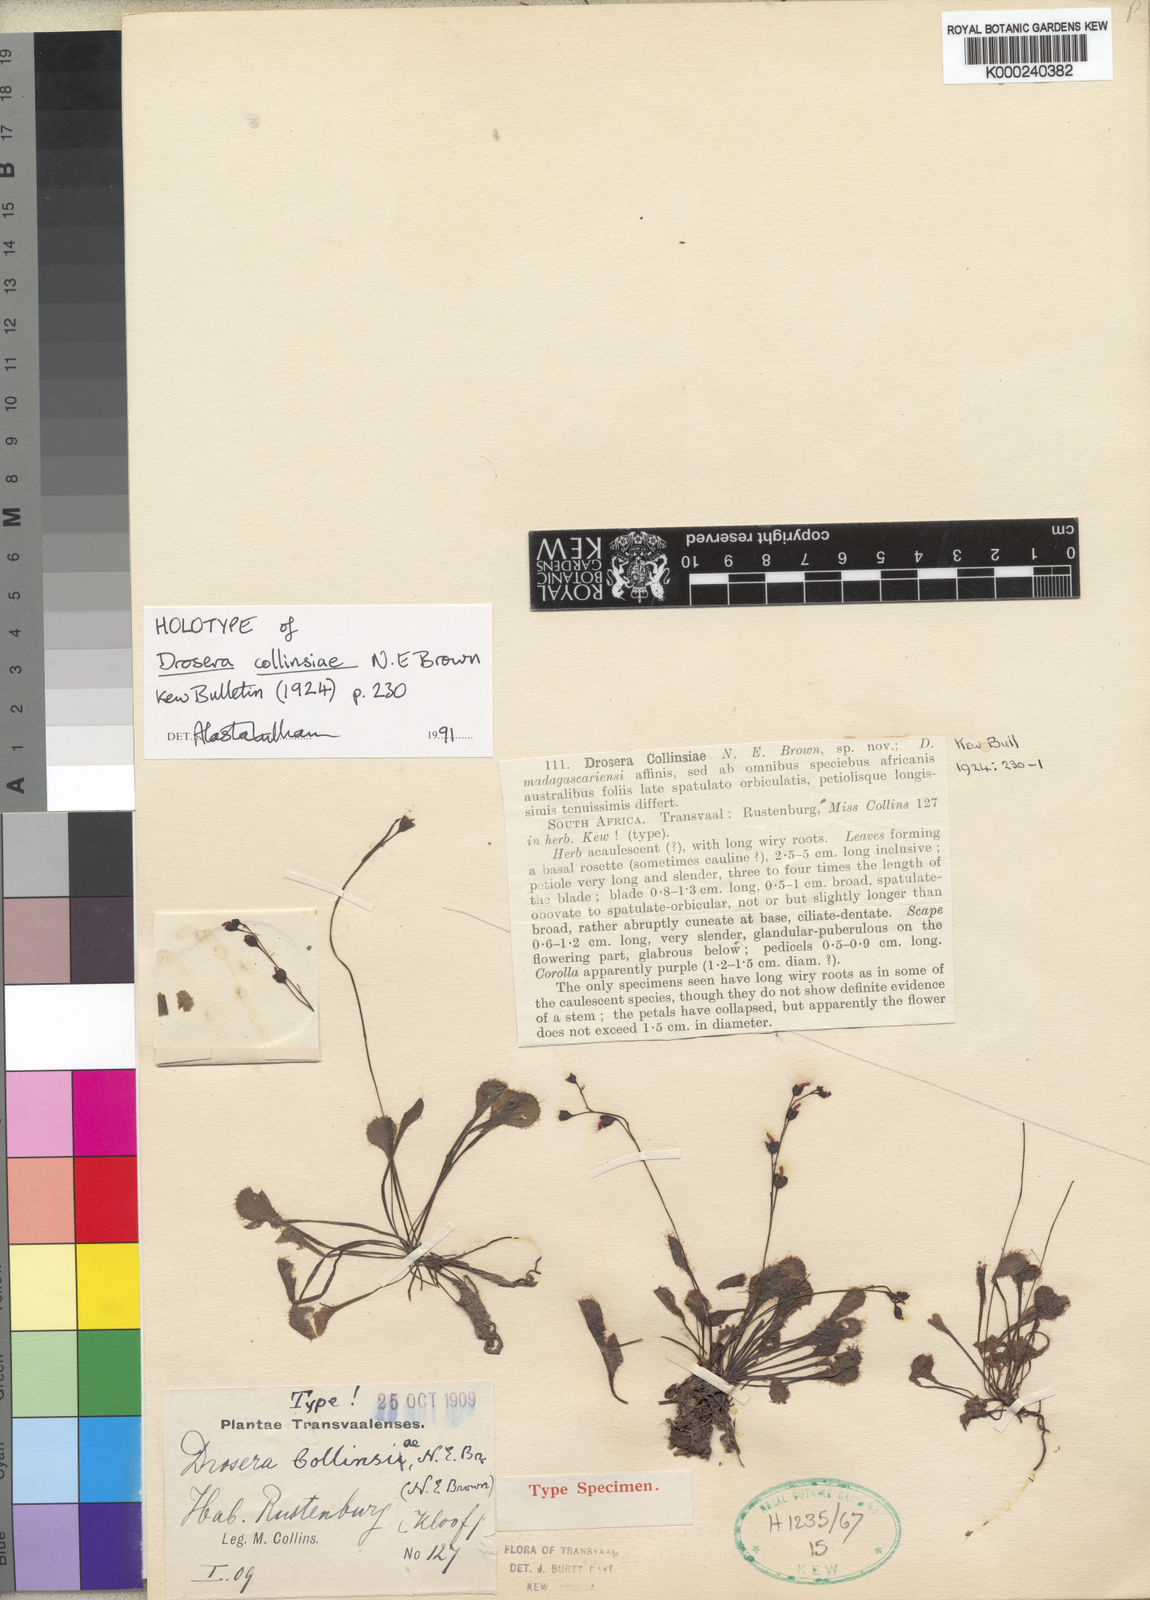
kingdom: Plantae
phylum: Tracheophyta
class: Magnoliopsida
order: Caryophyllales
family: Droseraceae
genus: Drosera
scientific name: Drosera
